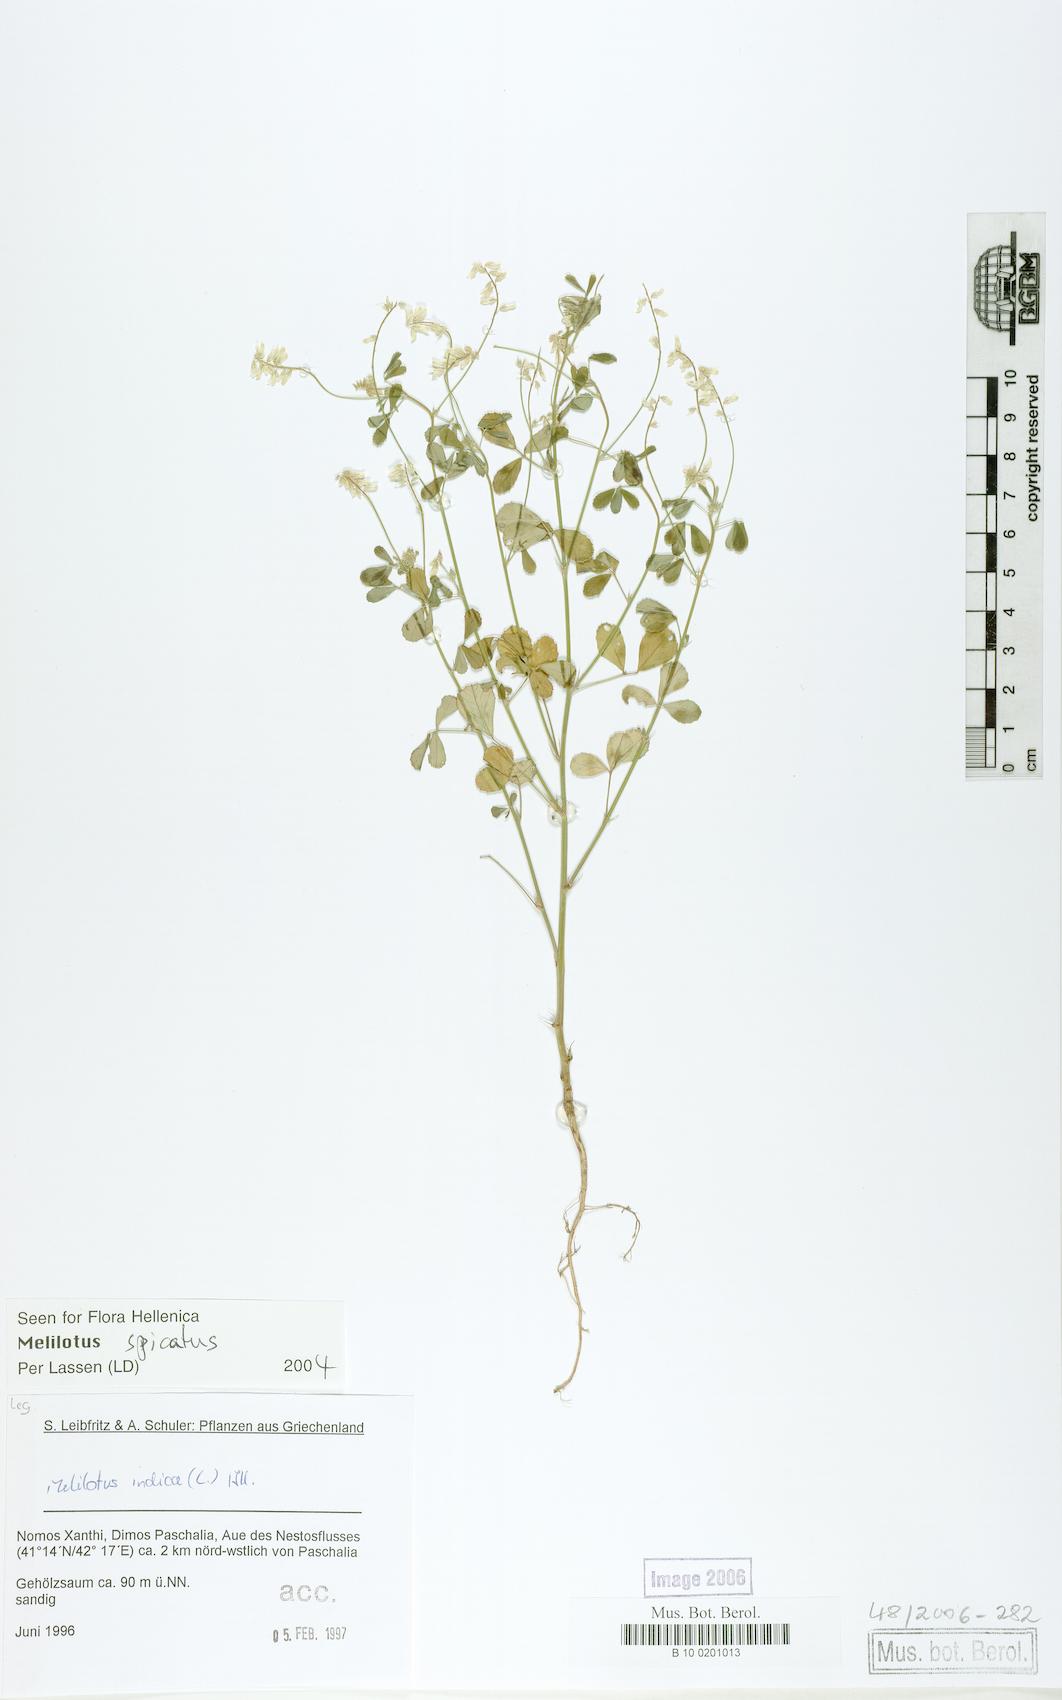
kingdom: Plantae
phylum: Tracheophyta
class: Magnoliopsida
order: Fabales
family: Fabaceae
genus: Melilotus
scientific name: Melilotus neapolitanus
